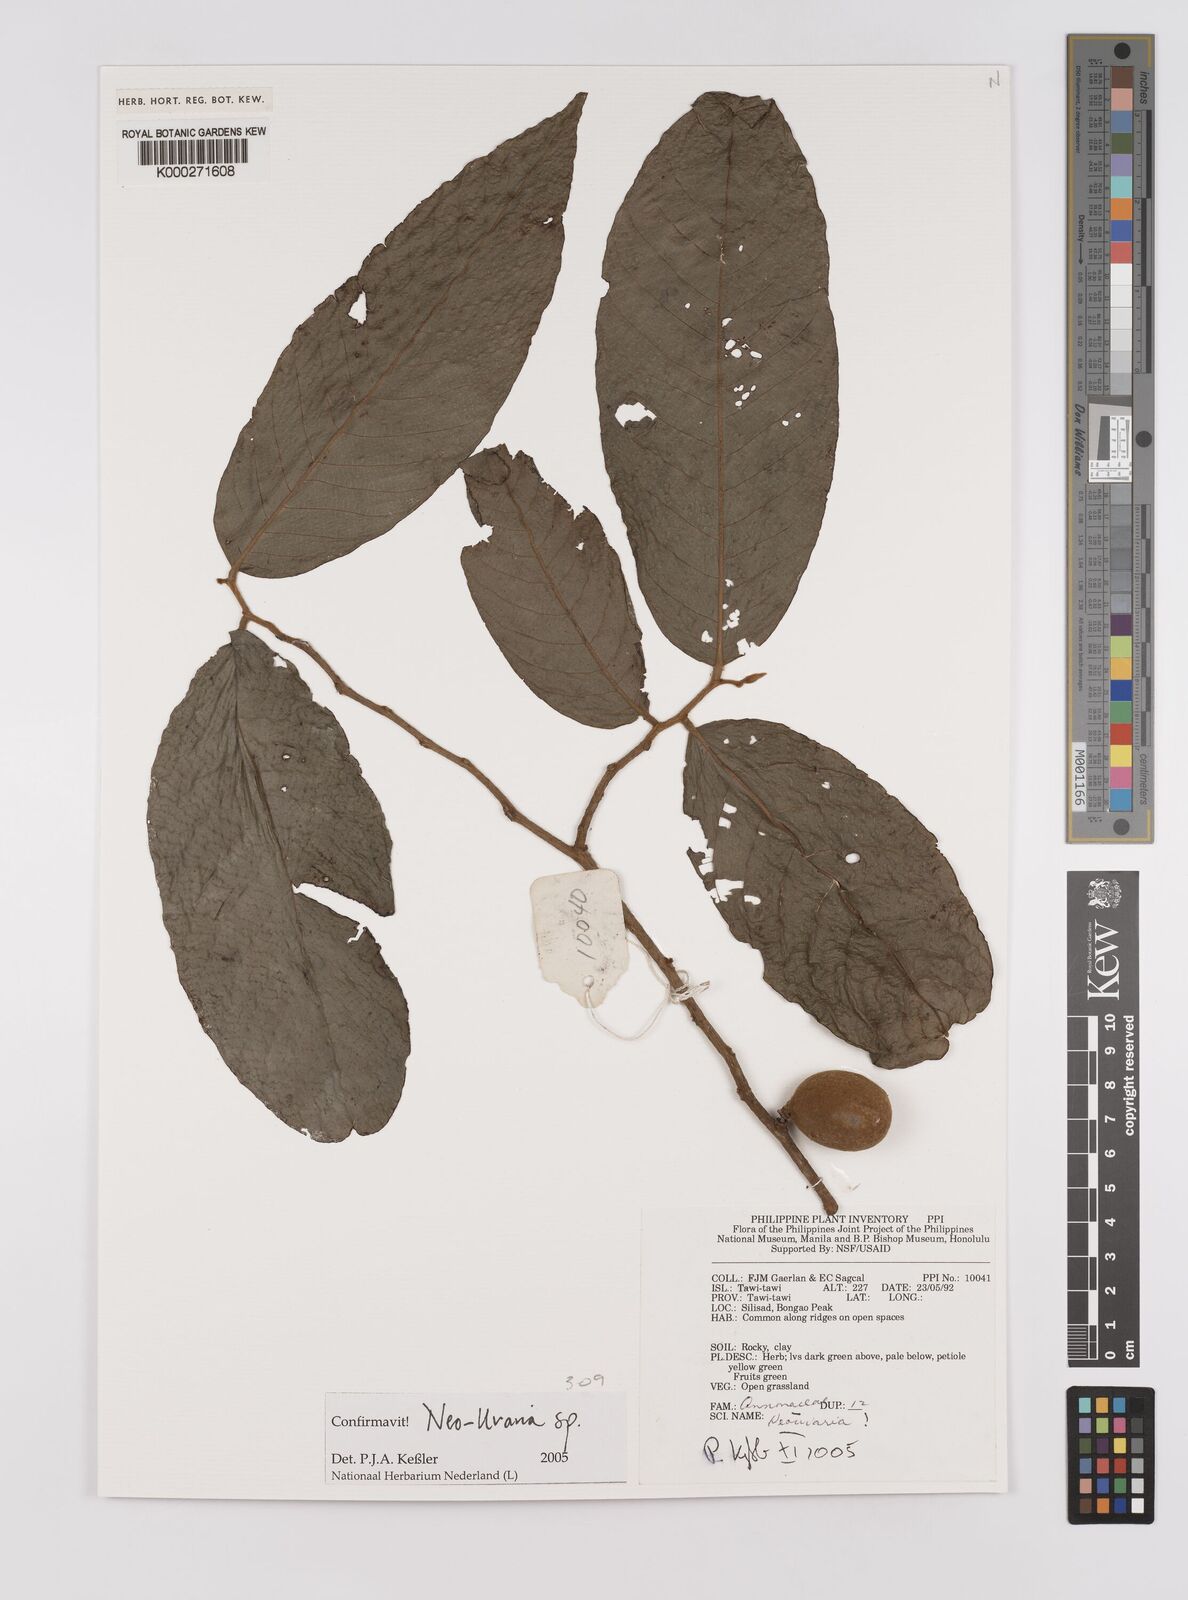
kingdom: Plantae
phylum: Tracheophyta
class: Magnoliopsida
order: Magnoliales
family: Annonaceae
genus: Neo-uvaria
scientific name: Neo-uvaria
